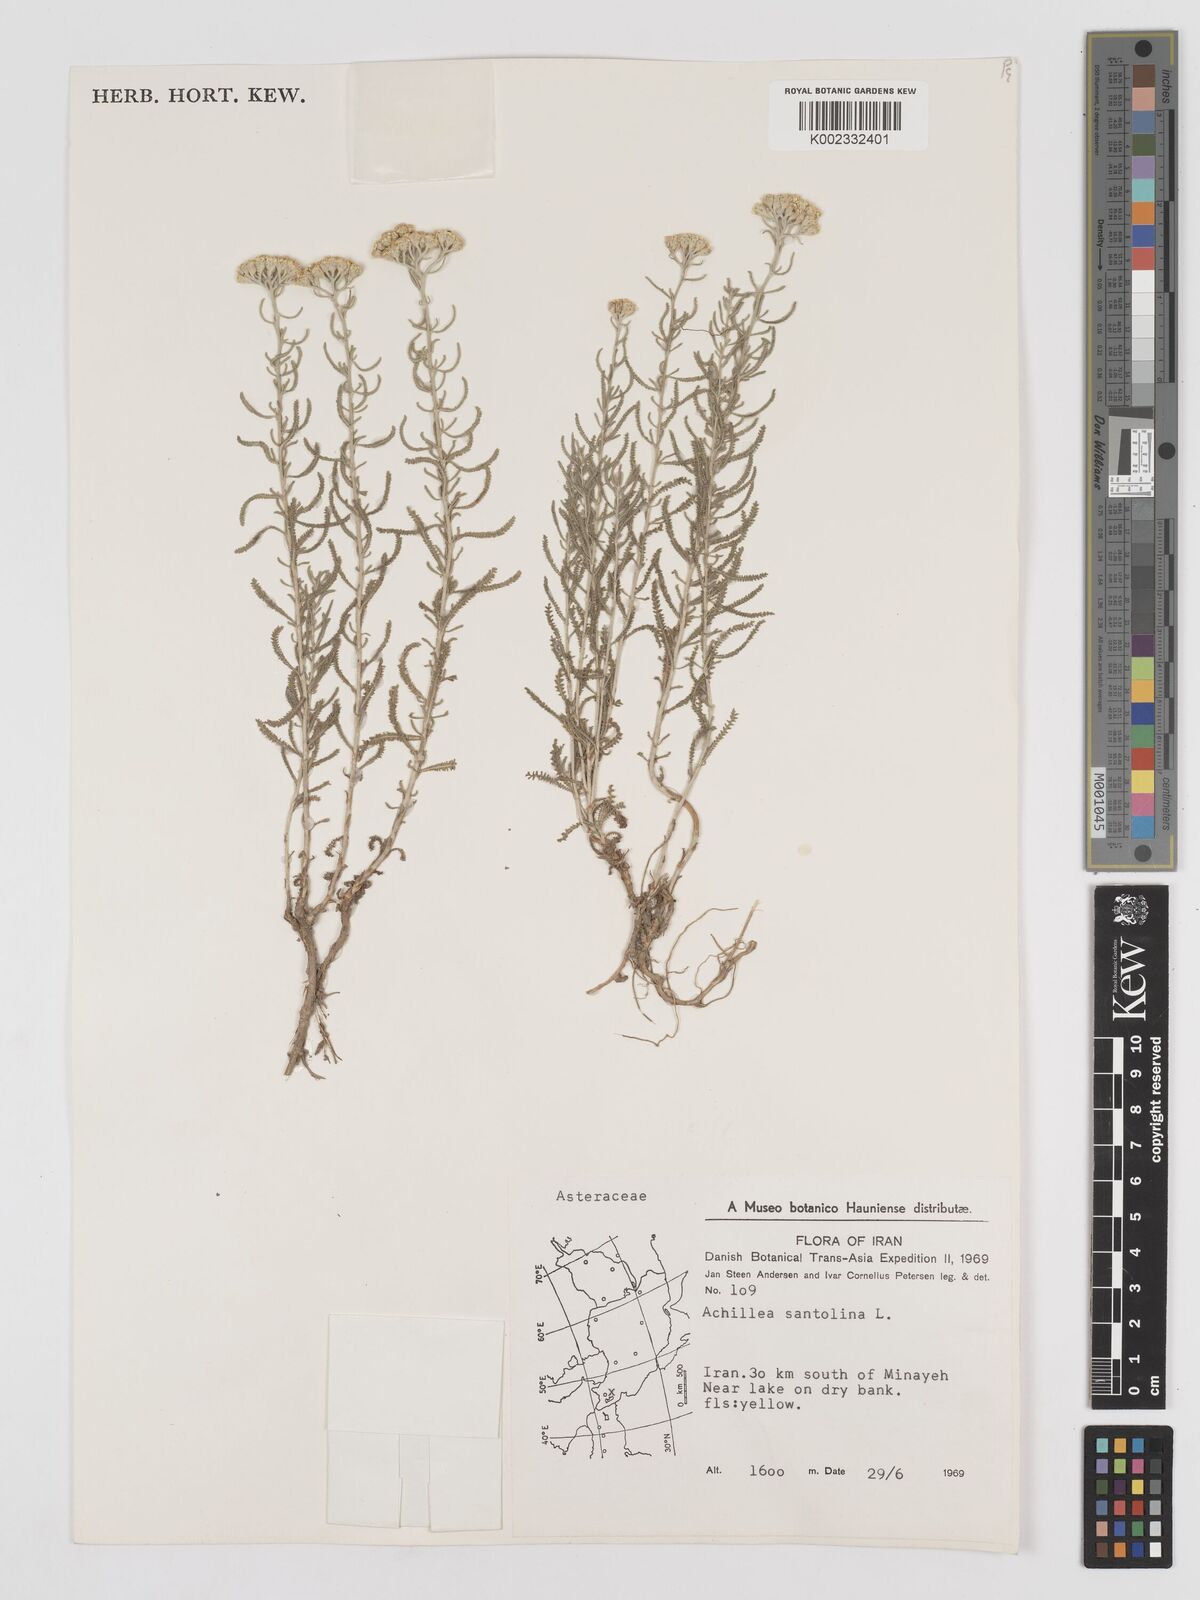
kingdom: Plantae
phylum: Tracheophyta
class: Magnoliopsida
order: Asterales
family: Asteraceae
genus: Achillea
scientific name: Achillea cretica
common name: Chamomile-leaved lavender-cotton
